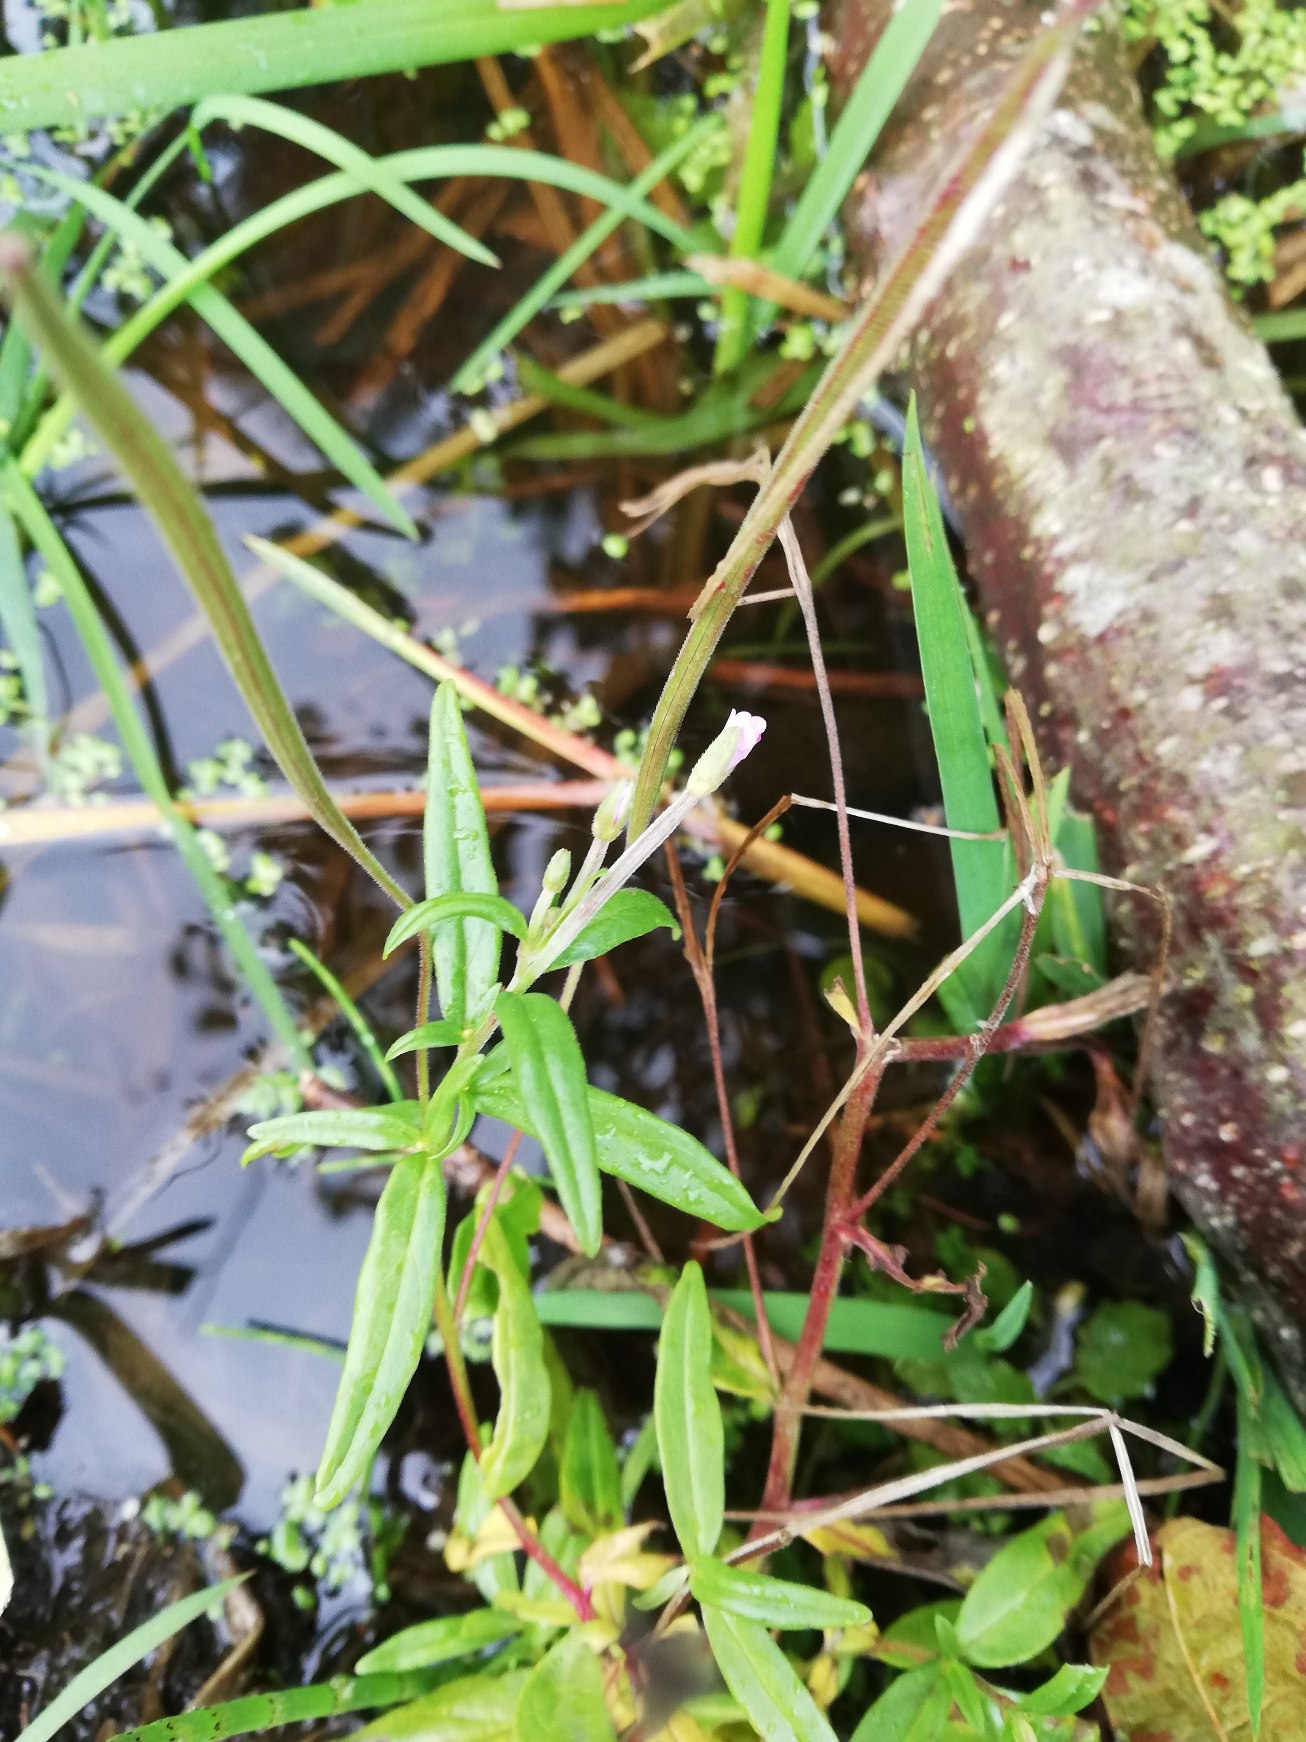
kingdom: Plantae
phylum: Tracheophyta
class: Magnoliopsida
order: Myrtales
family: Onagraceae
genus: Epilobium
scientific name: Epilobium palustre
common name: Kær-dueurt
